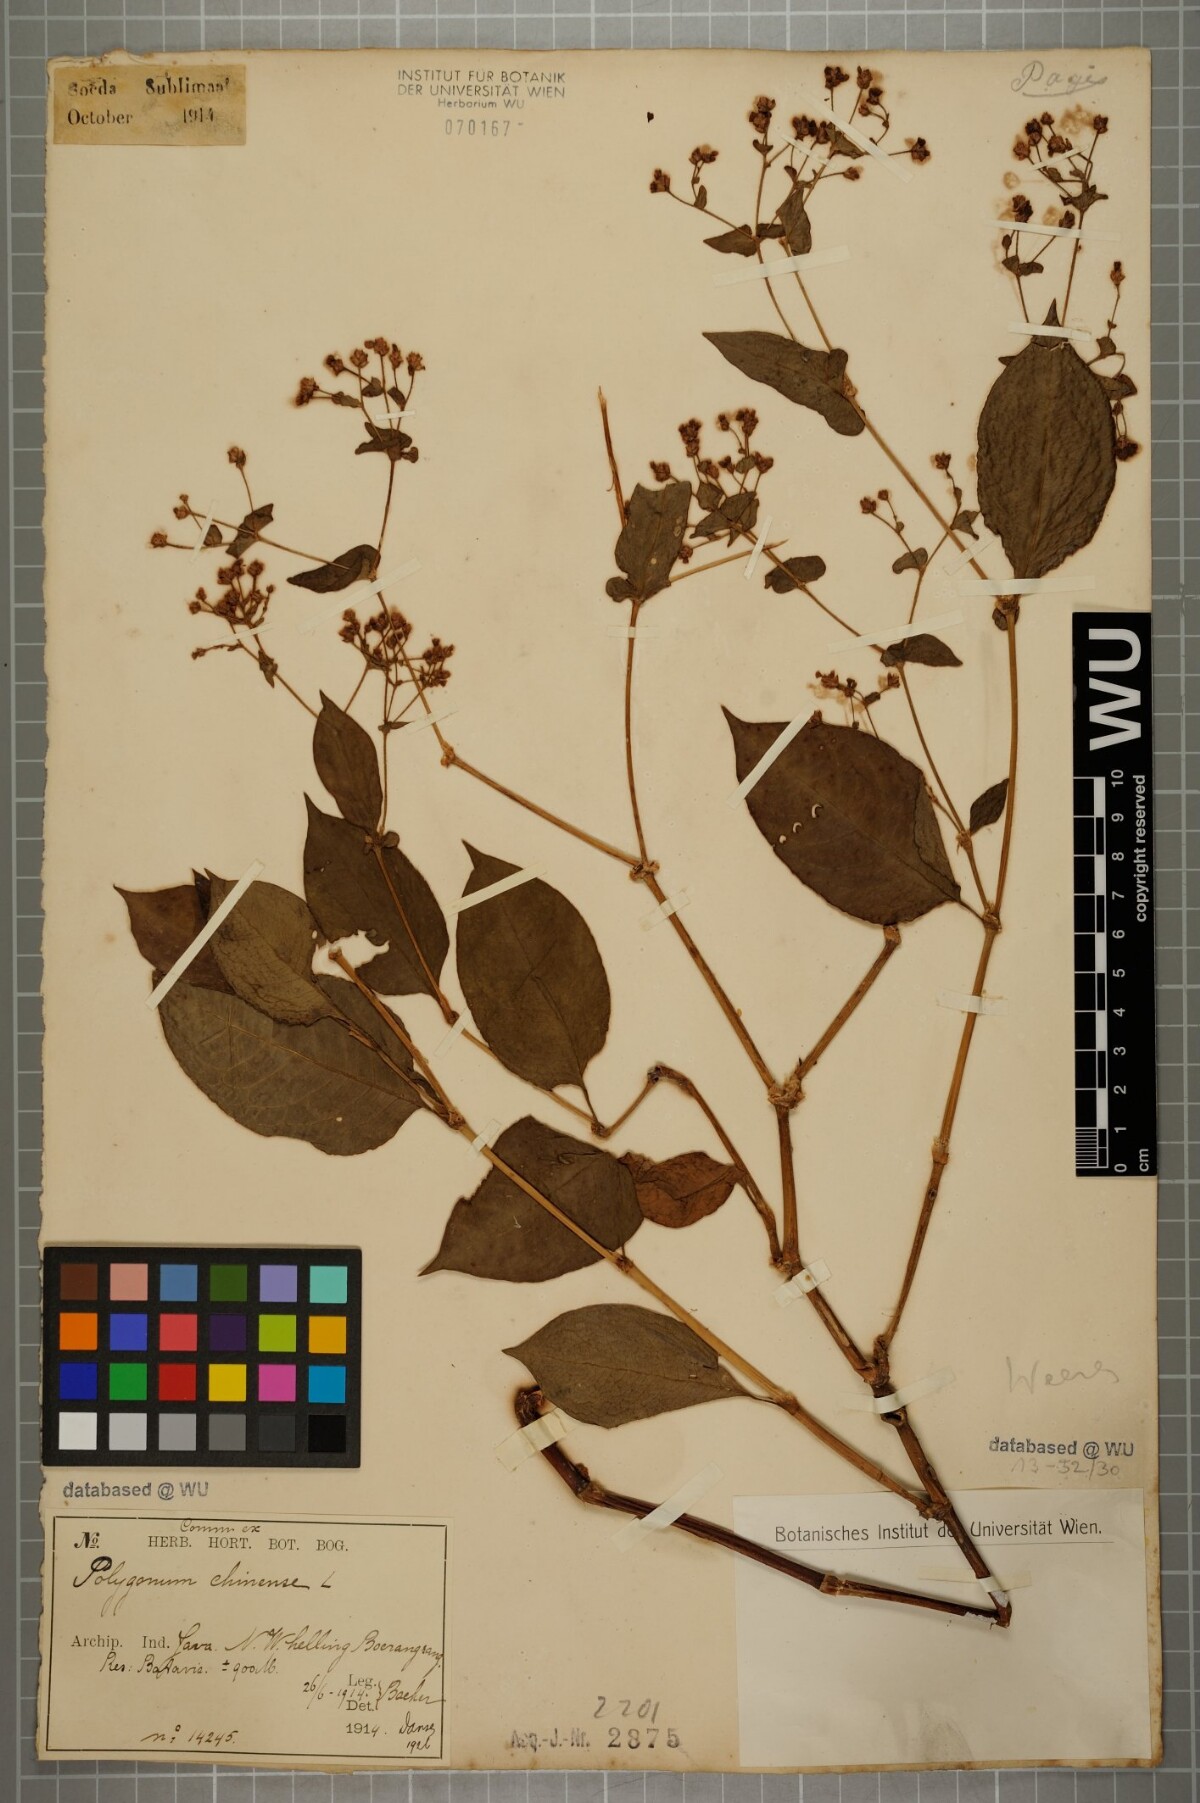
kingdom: Plantae
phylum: Tracheophyta
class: Magnoliopsida
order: Caryophyllales
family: Polygonaceae
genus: Persicaria
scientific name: Persicaria chinensis
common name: Chinese knotweed
